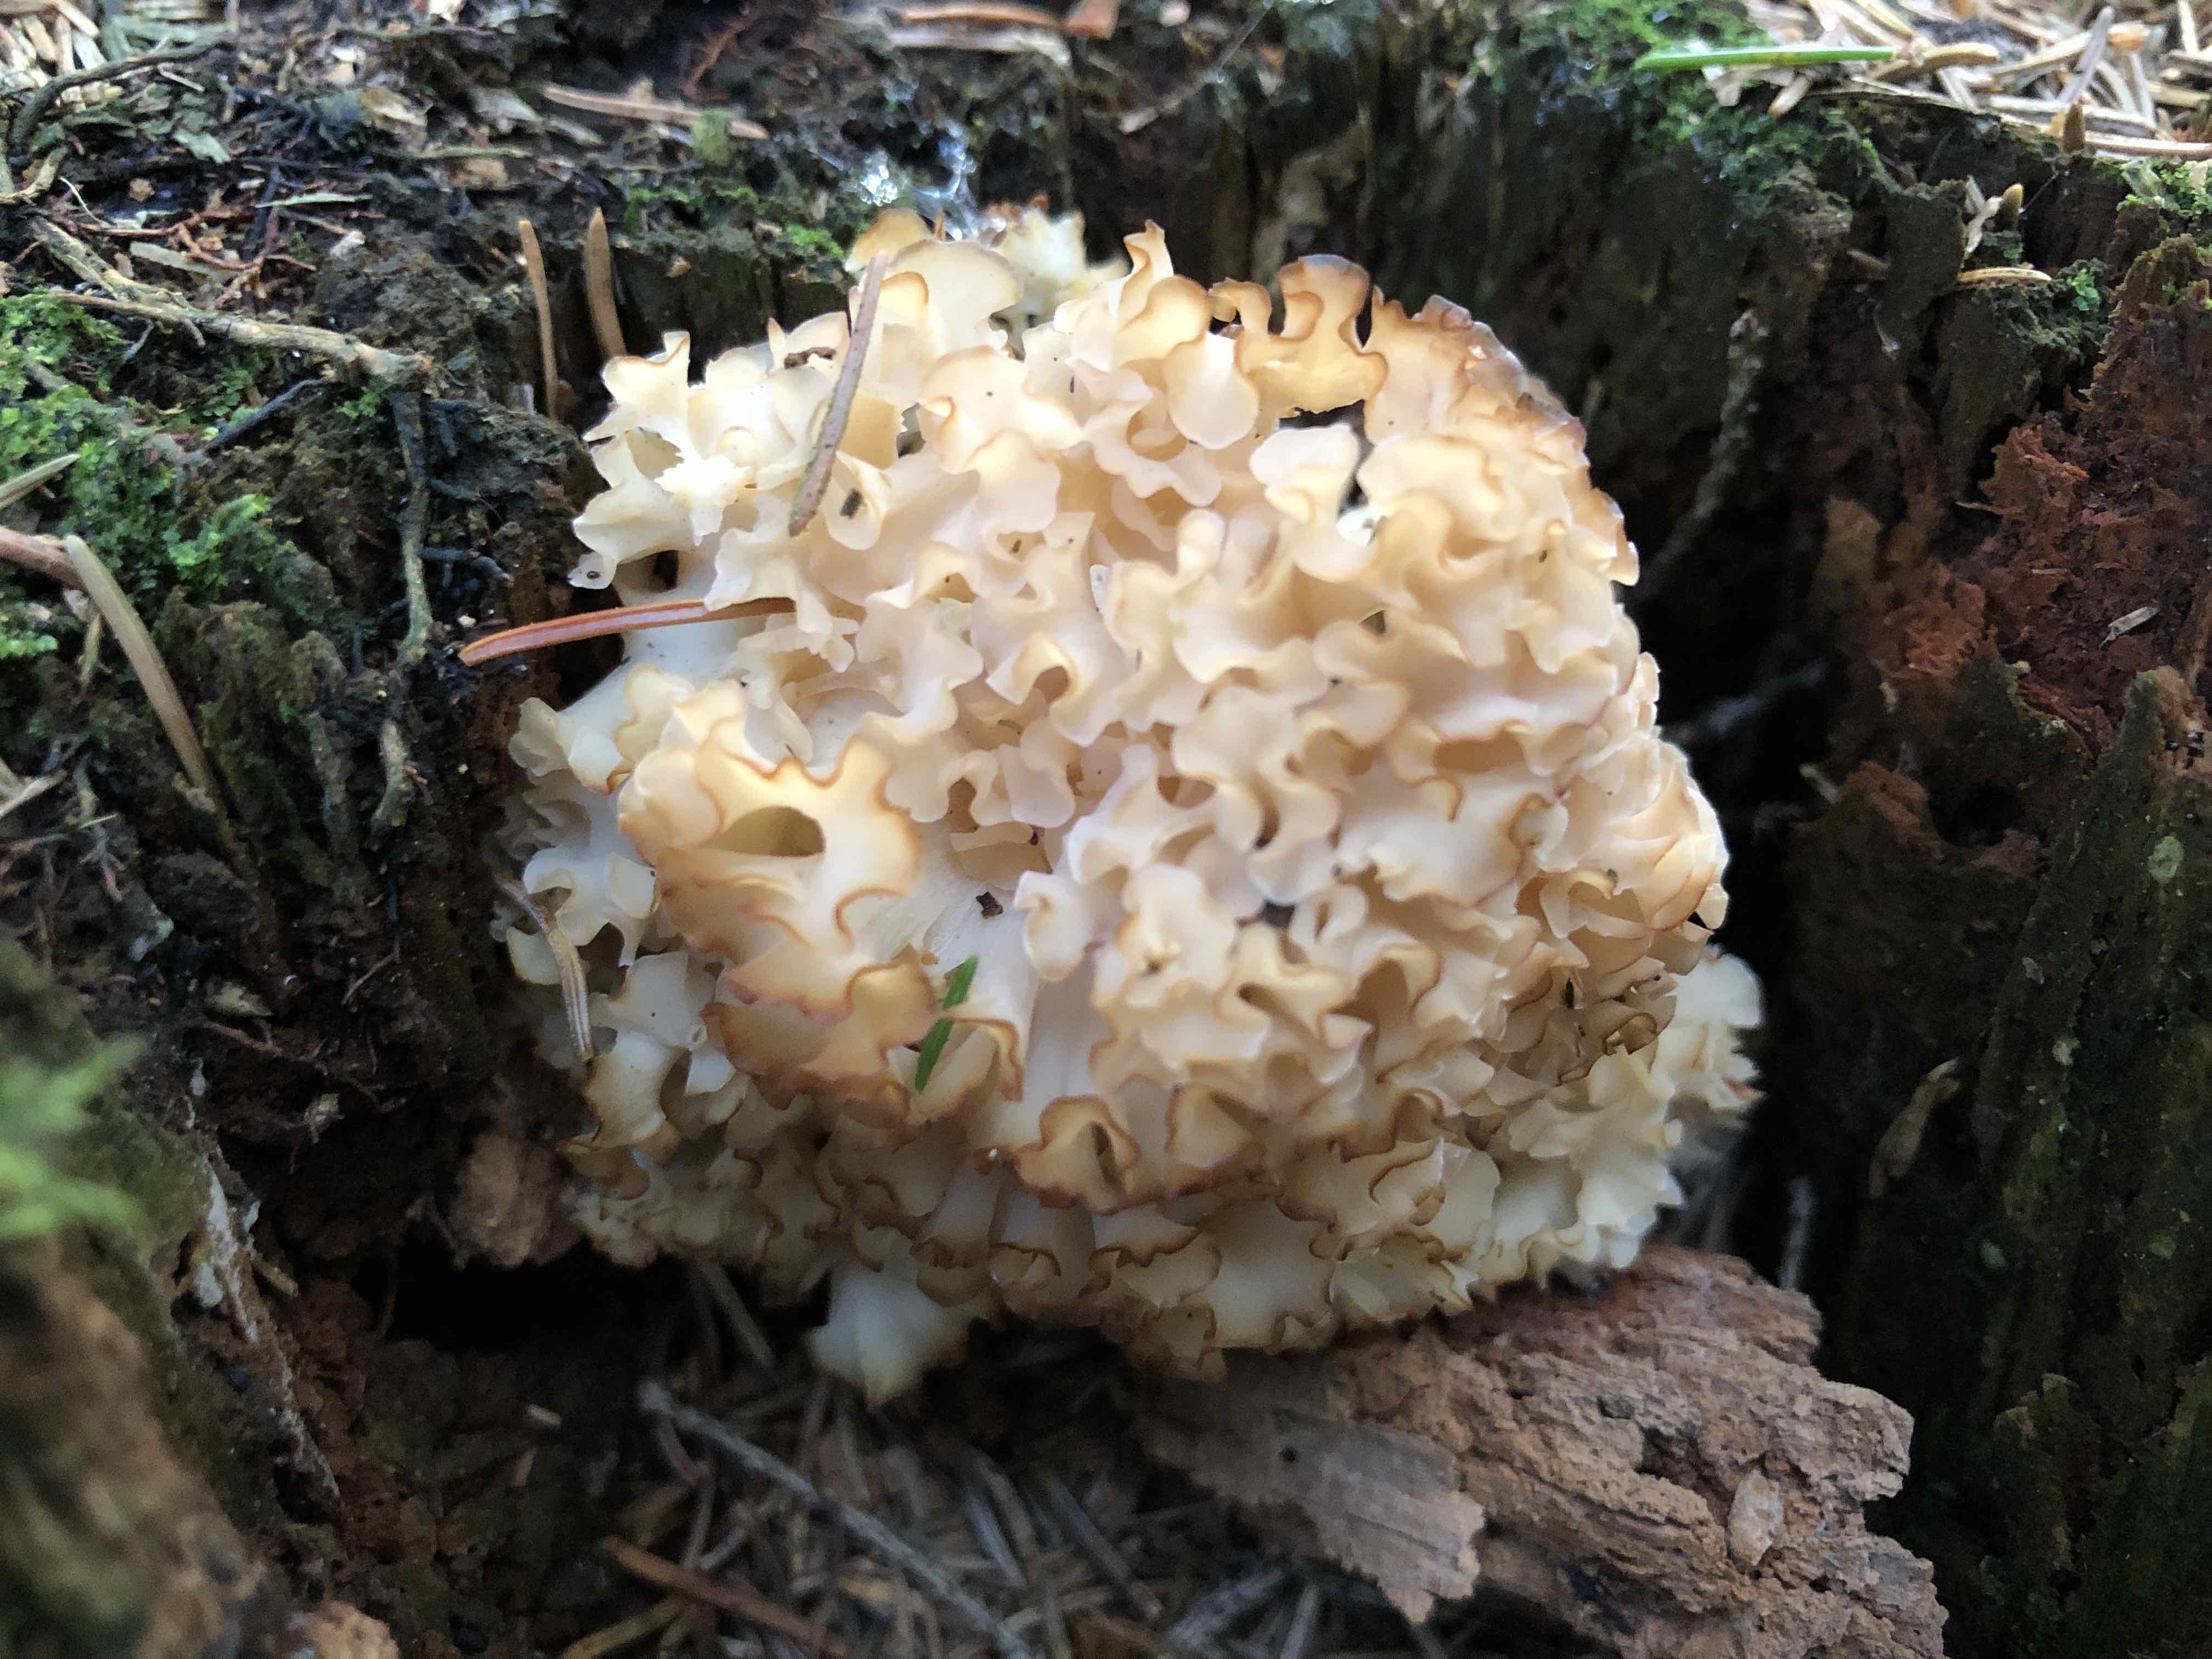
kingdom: Fungi
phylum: Basidiomycota
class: Agaricomycetes
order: Polyporales
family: Sparassidaceae
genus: Sparassis
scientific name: Sparassis crispa
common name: kruset blomkålssvamp
